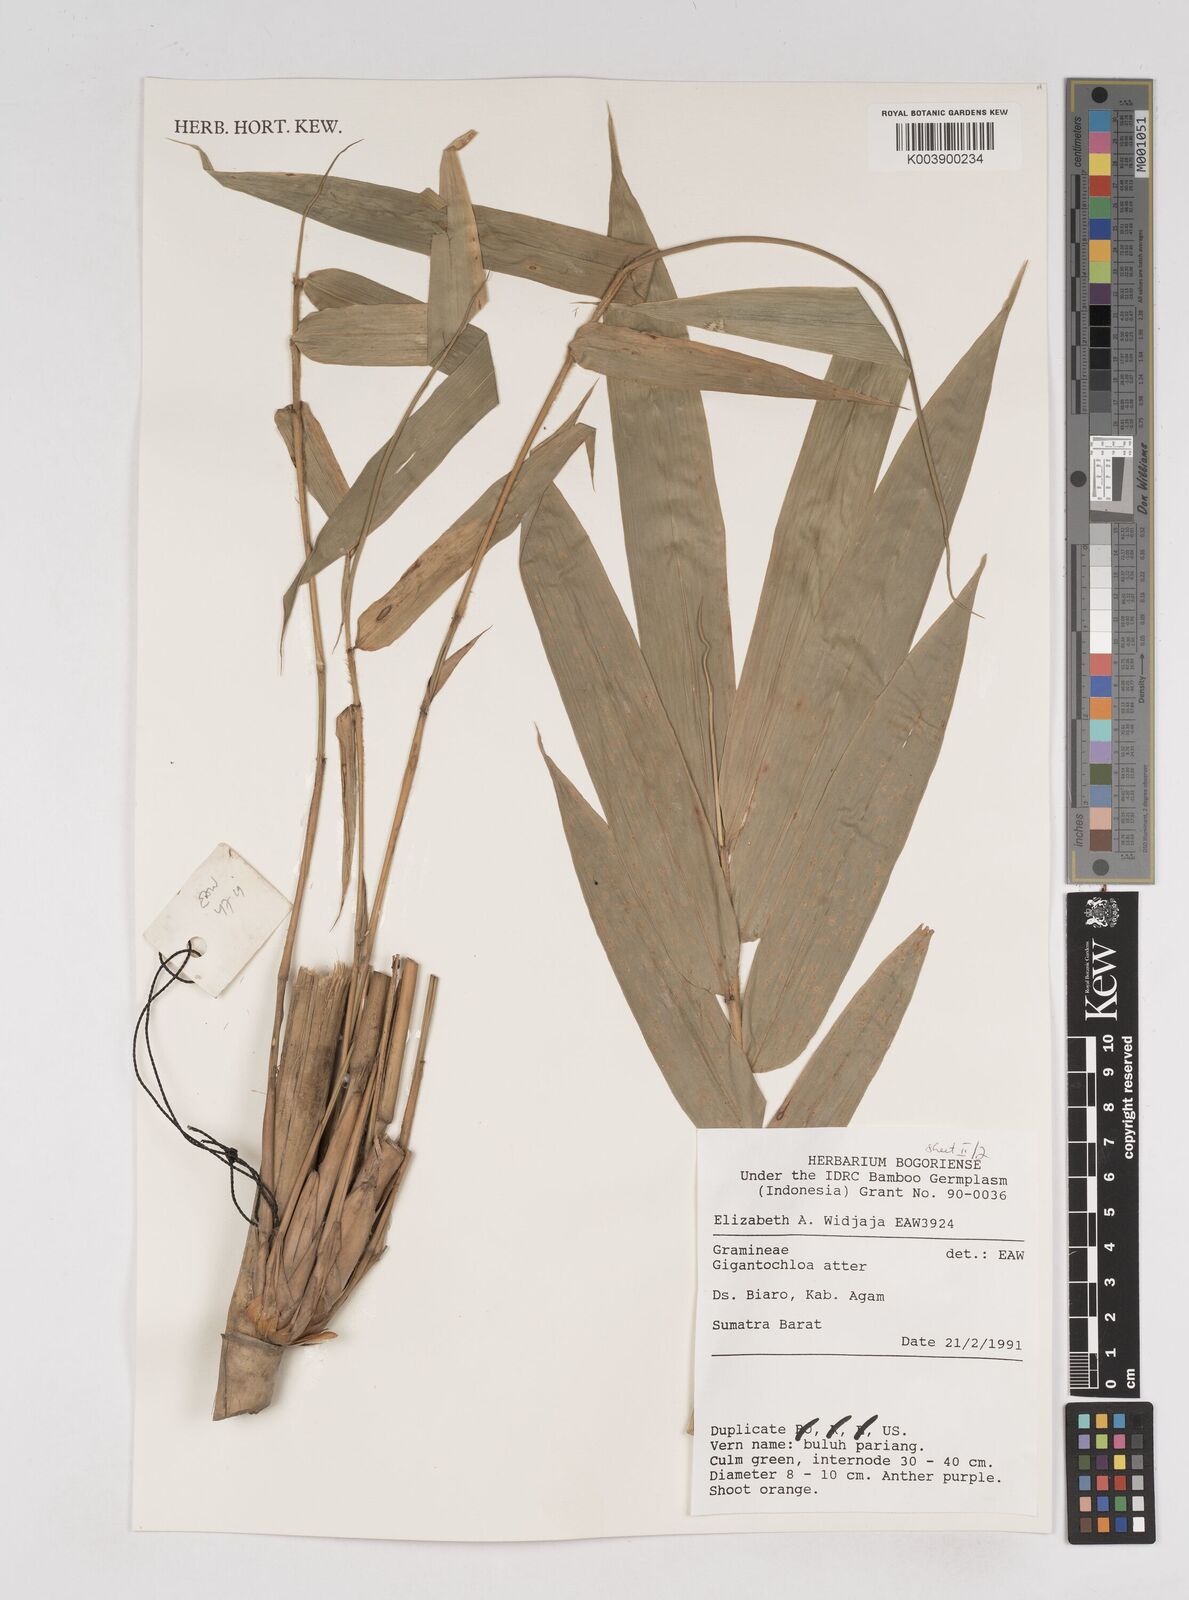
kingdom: Plantae
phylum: Tracheophyta
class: Liliopsida
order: Poales
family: Poaceae
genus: Gigantochloa
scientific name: Gigantochloa atter
